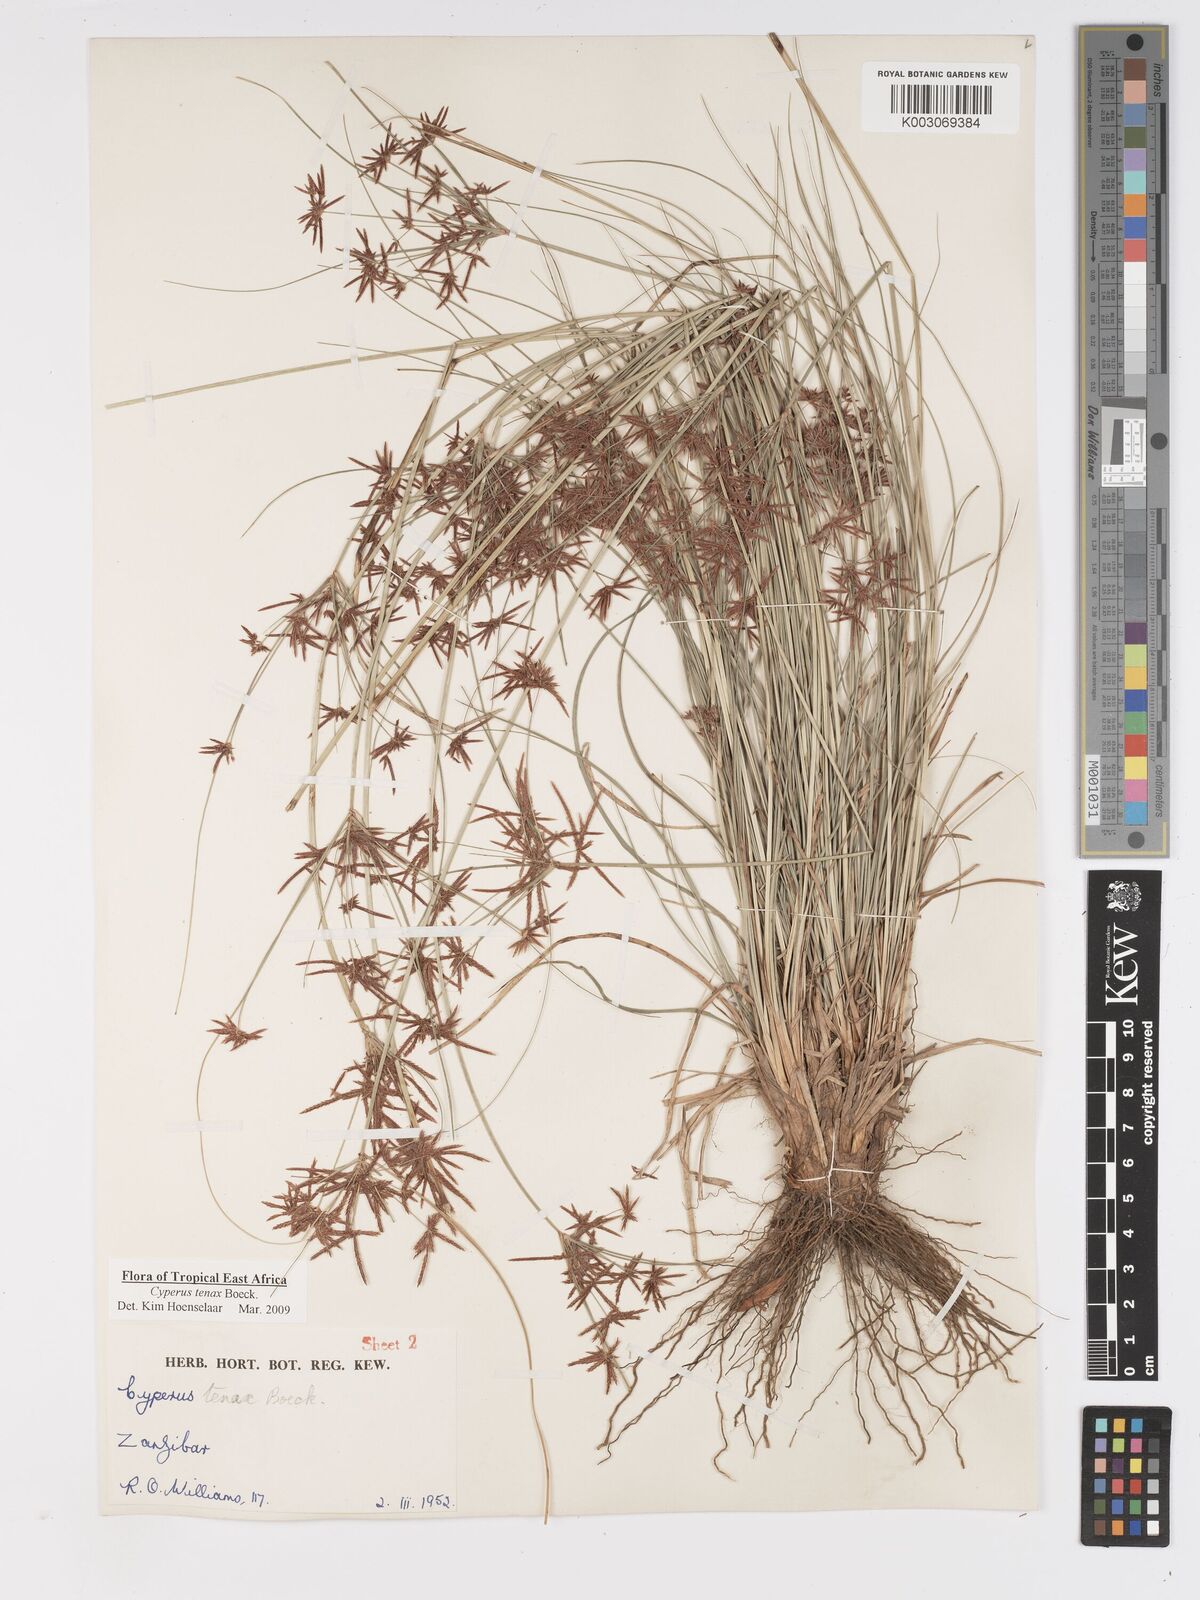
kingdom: Plantae
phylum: Tracheophyta
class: Liliopsida
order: Poales
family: Cyperaceae
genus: Cyperus
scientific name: Cyperus tenax
